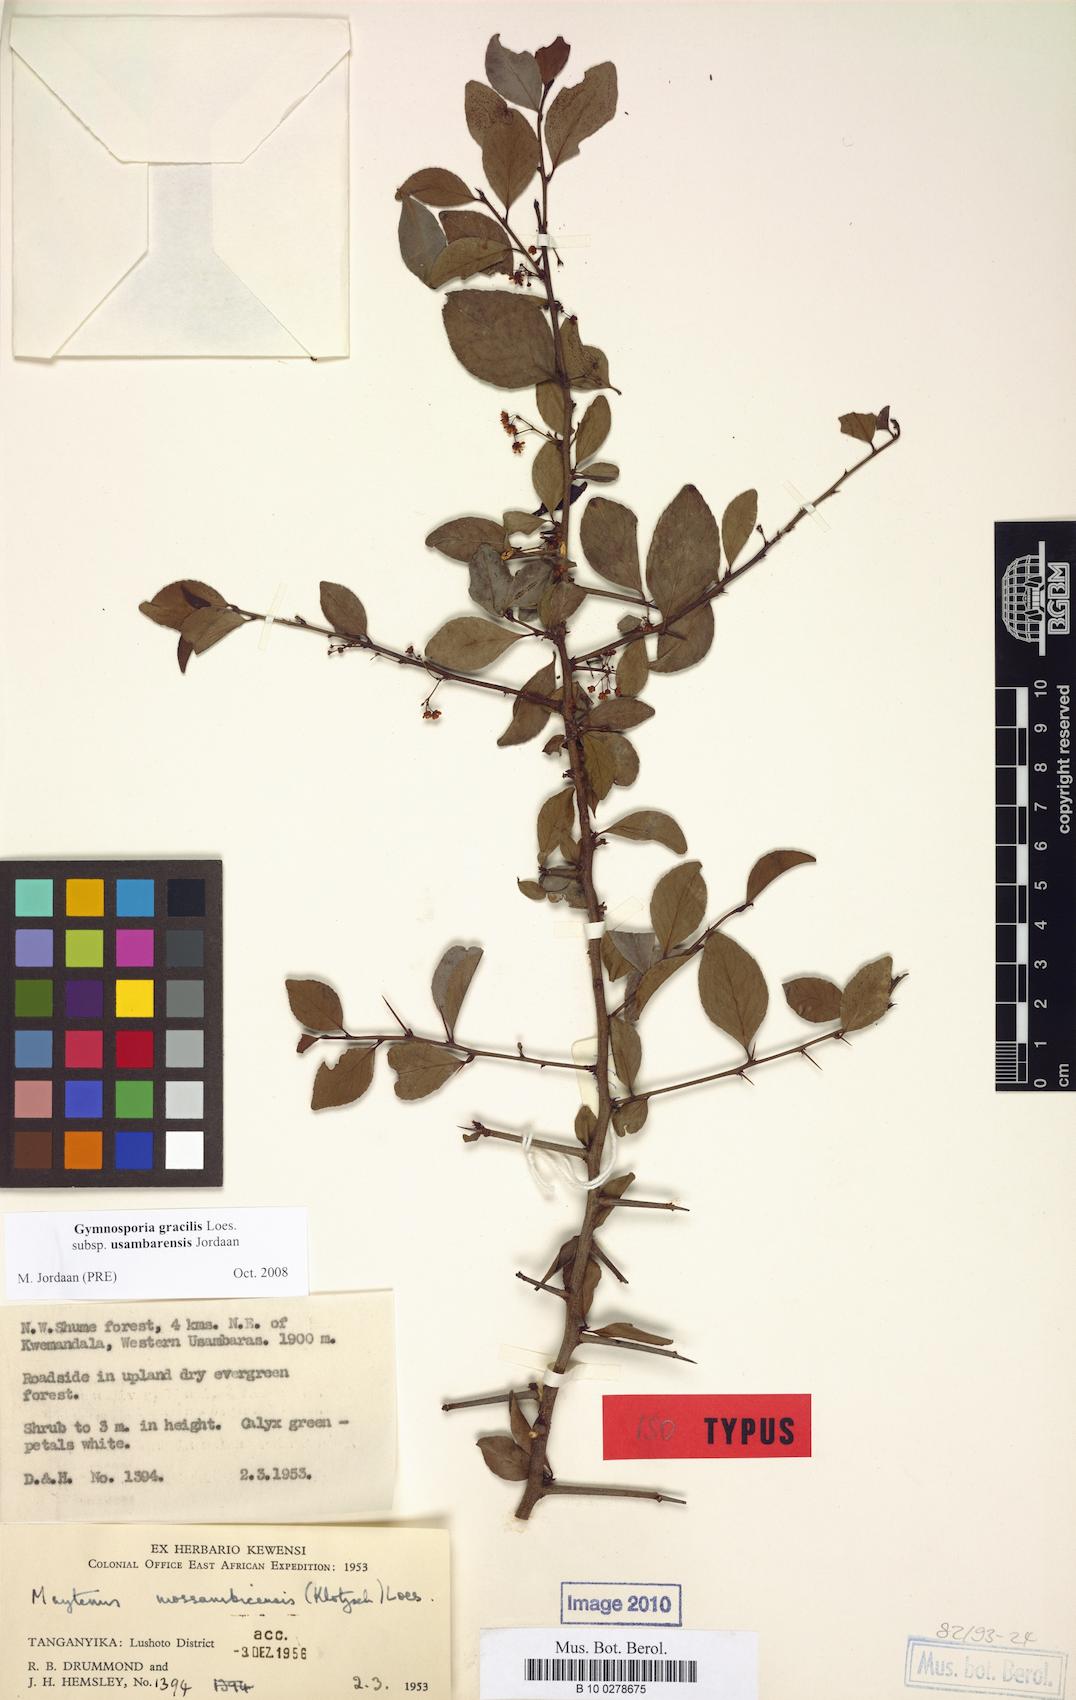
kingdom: Plantae
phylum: Tracheophyta
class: Magnoliopsida
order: Celastrales
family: Celastraceae
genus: Gymnosporia
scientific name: Gymnosporia gracilis
